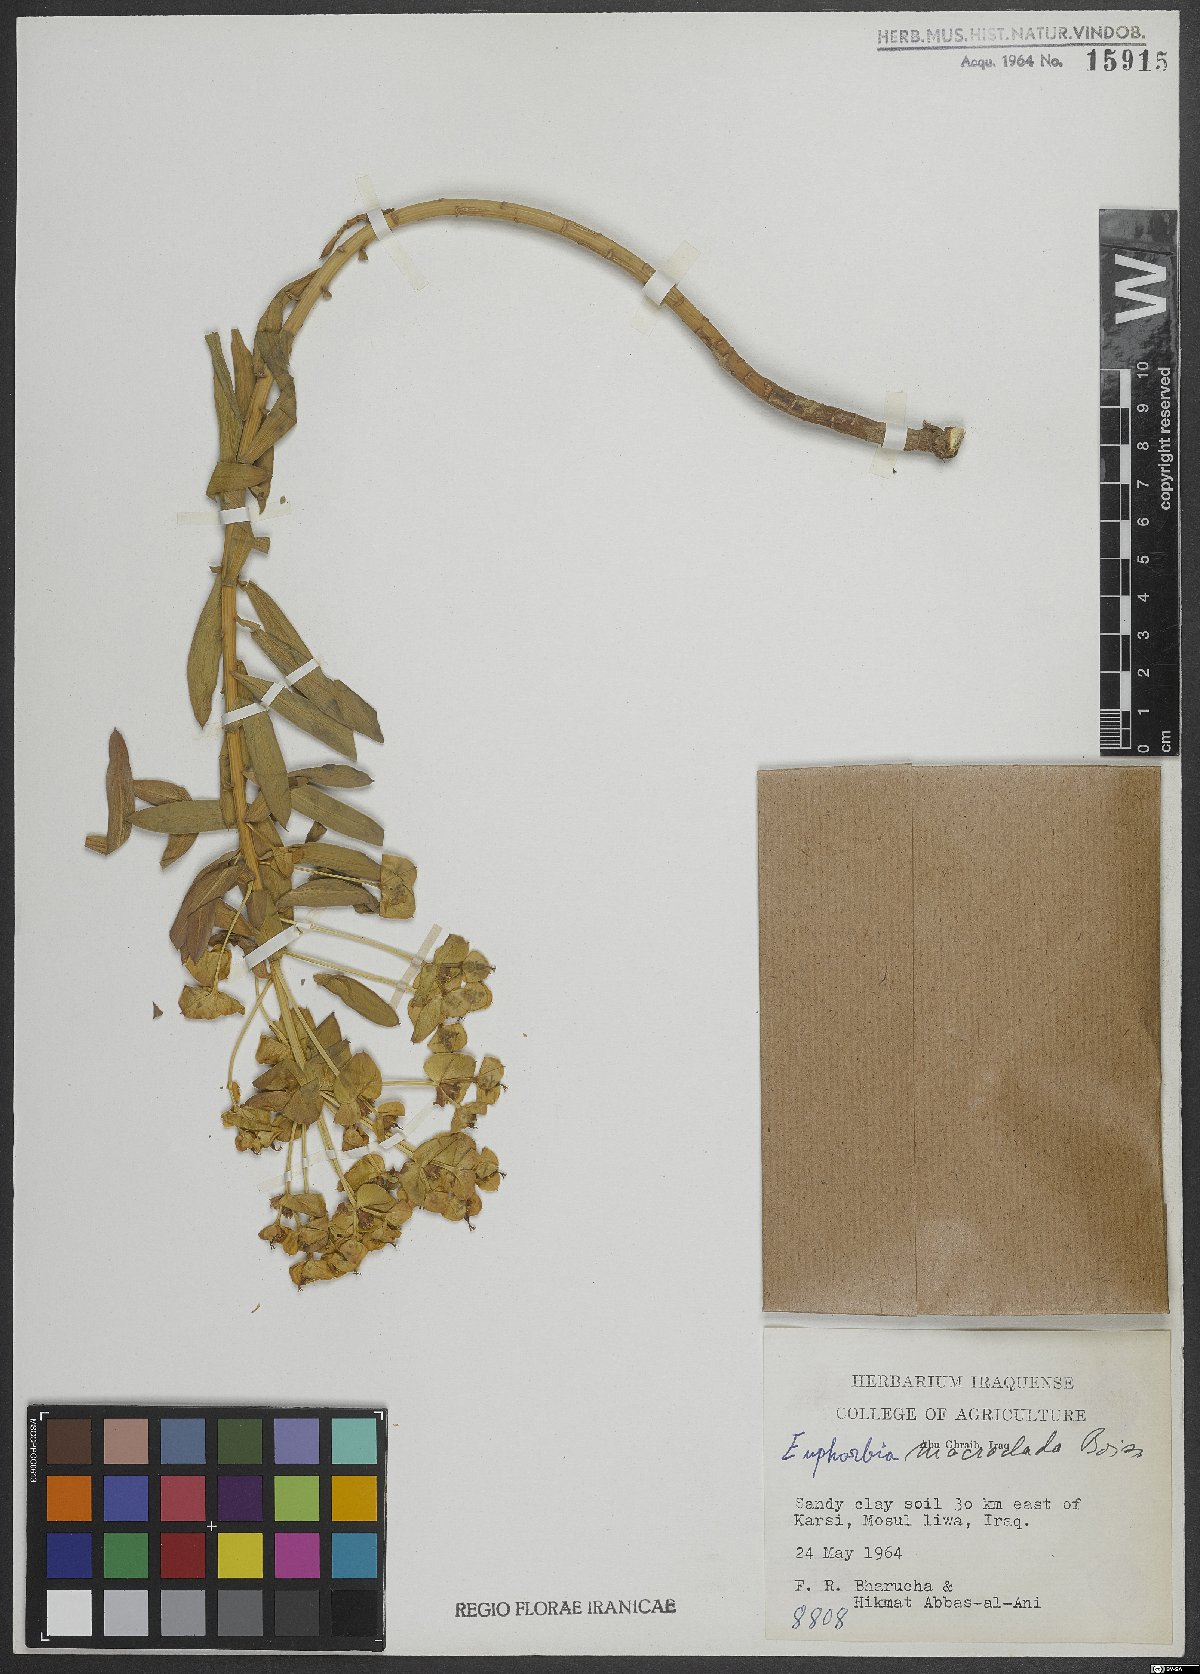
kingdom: Plantae
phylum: Tracheophyta
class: Magnoliopsida
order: Malpighiales
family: Euphorbiaceae
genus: Euphorbia
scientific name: Euphorbia macroclada
